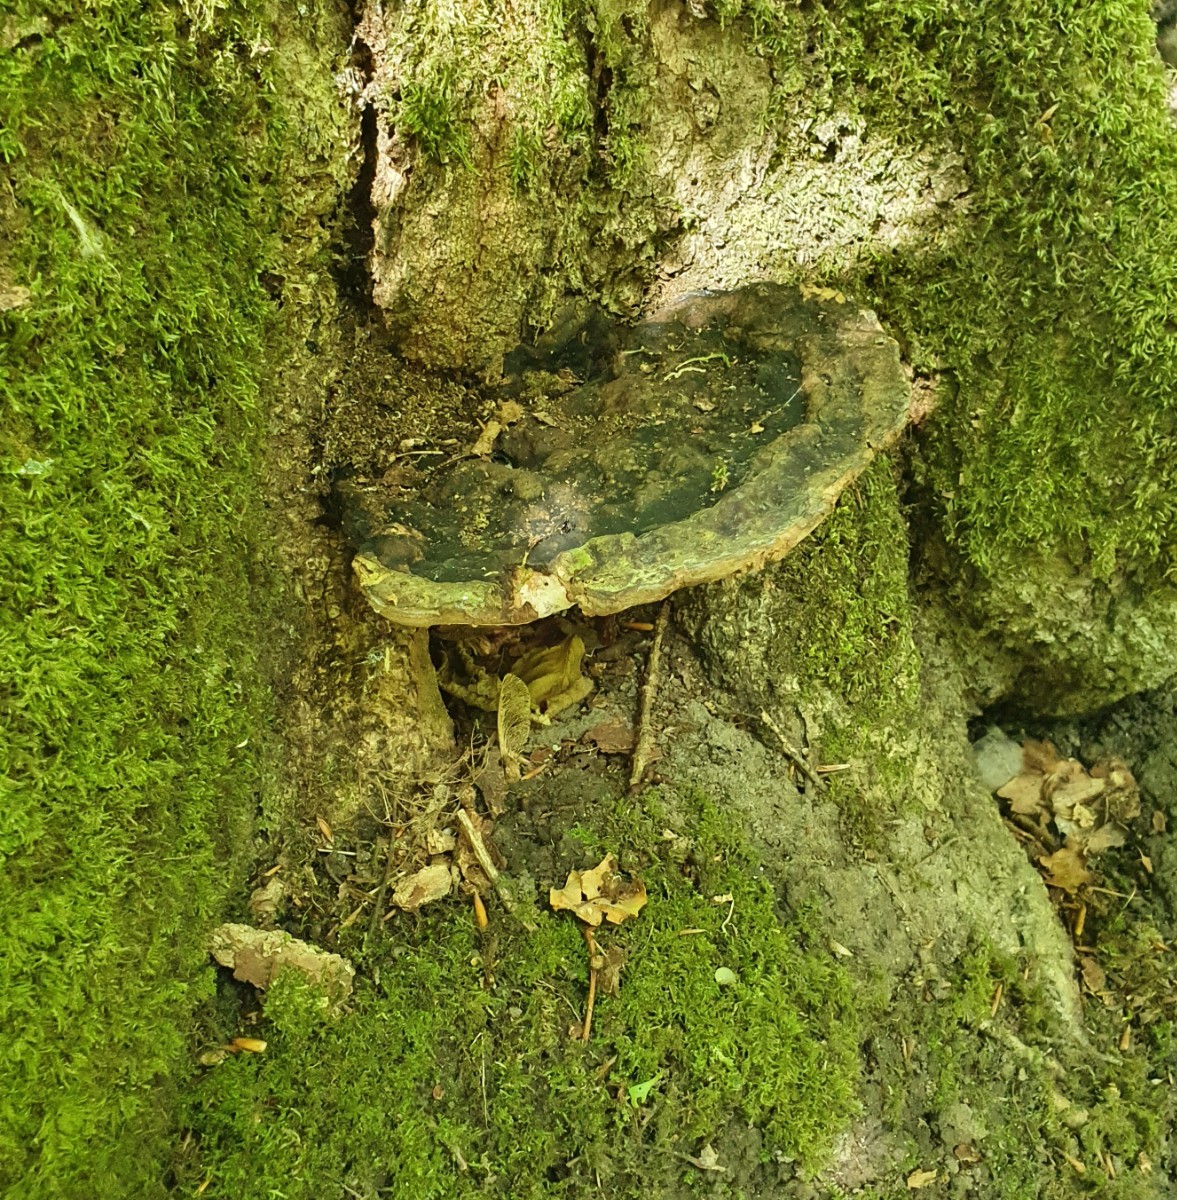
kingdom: Fungi
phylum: Basidiomycota
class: Agaricomycetes
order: Polyporales
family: Polyporaceae
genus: Vanderbylia
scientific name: Vanderbylia fraxinea
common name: stor kanelporesvamp
